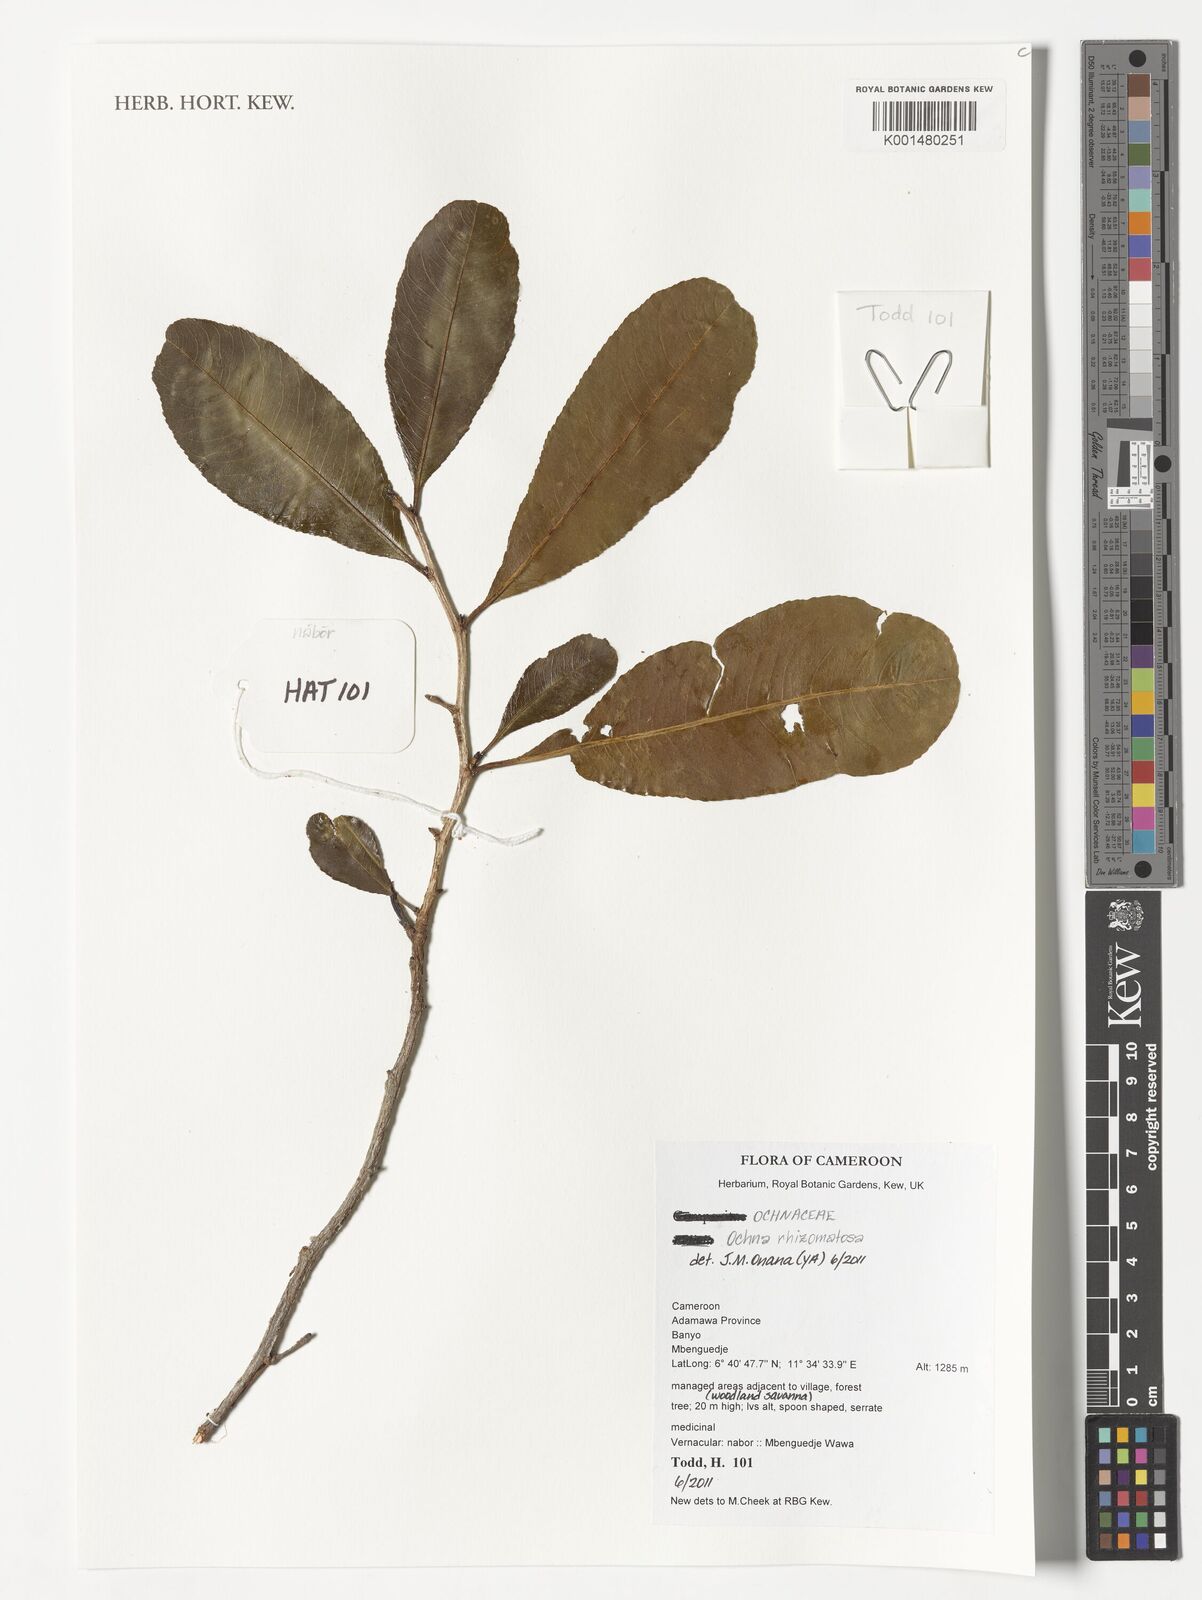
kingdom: Plantae
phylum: Tracheophyta
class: Magnoliopsida
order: Malpighiales
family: Ochnaceae
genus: Ochna
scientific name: Ochna rhizomatosa
